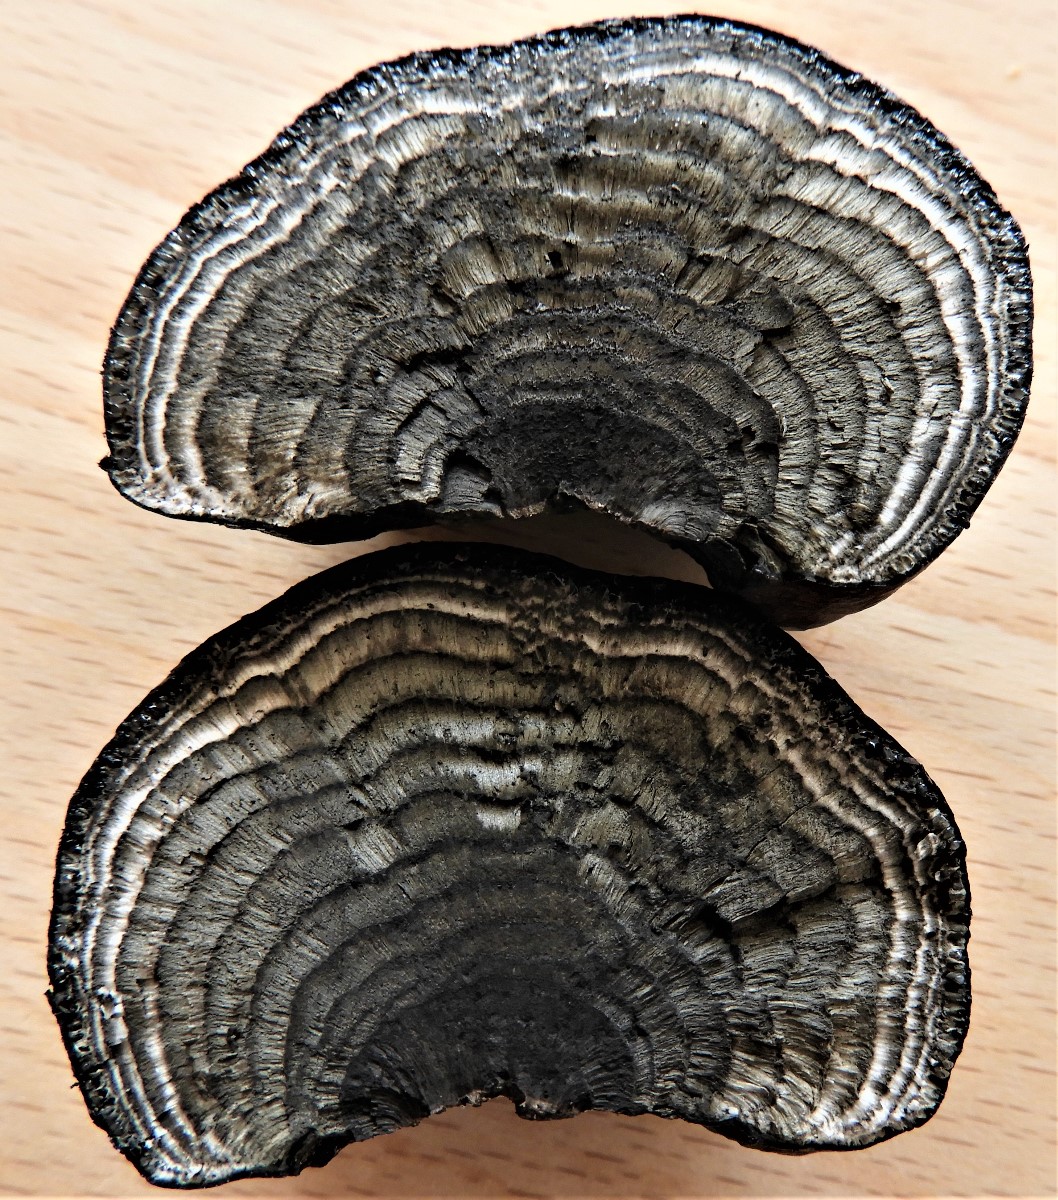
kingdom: Fungi
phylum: Ascomycota
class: Sordariomycetes
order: Xylariales
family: Hypoxylaceae
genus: Daldinia
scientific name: Daldinia concentrica
